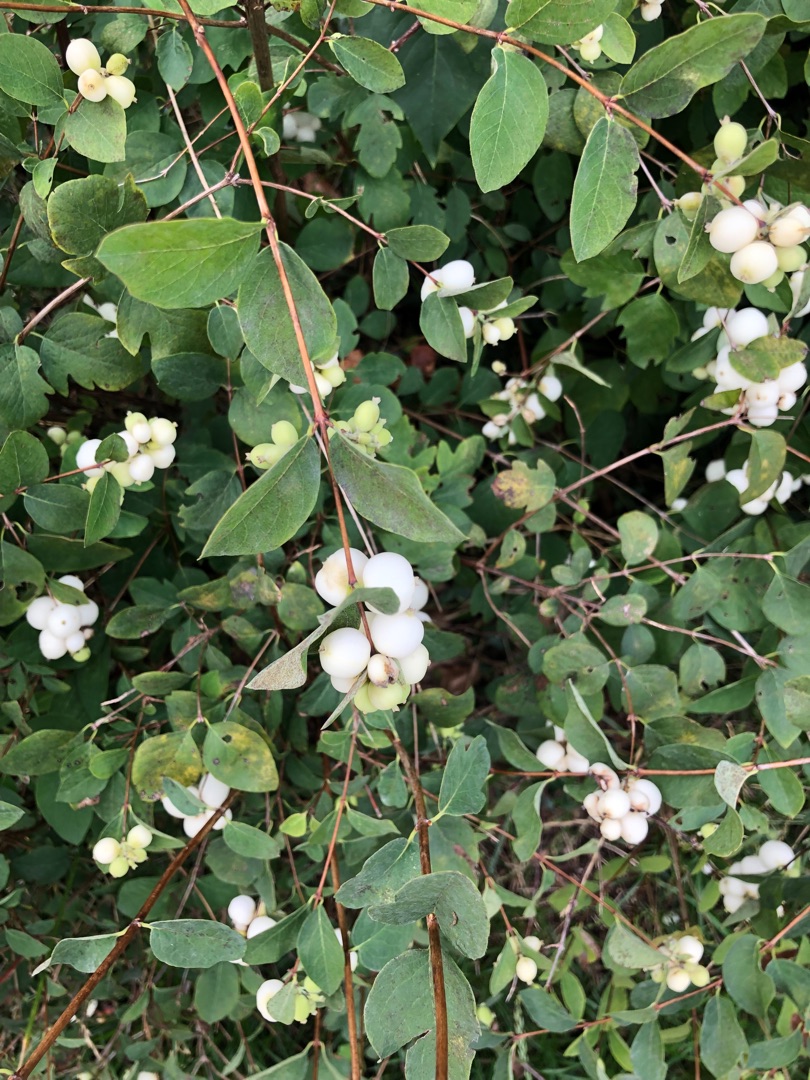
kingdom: Plantae
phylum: Tracheophyta
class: Magnoliopsida
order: Dipsacales
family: Caprifoliaceae
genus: Symphoricarpos
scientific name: Symphoricarpos albus
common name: Almindelig snebær
